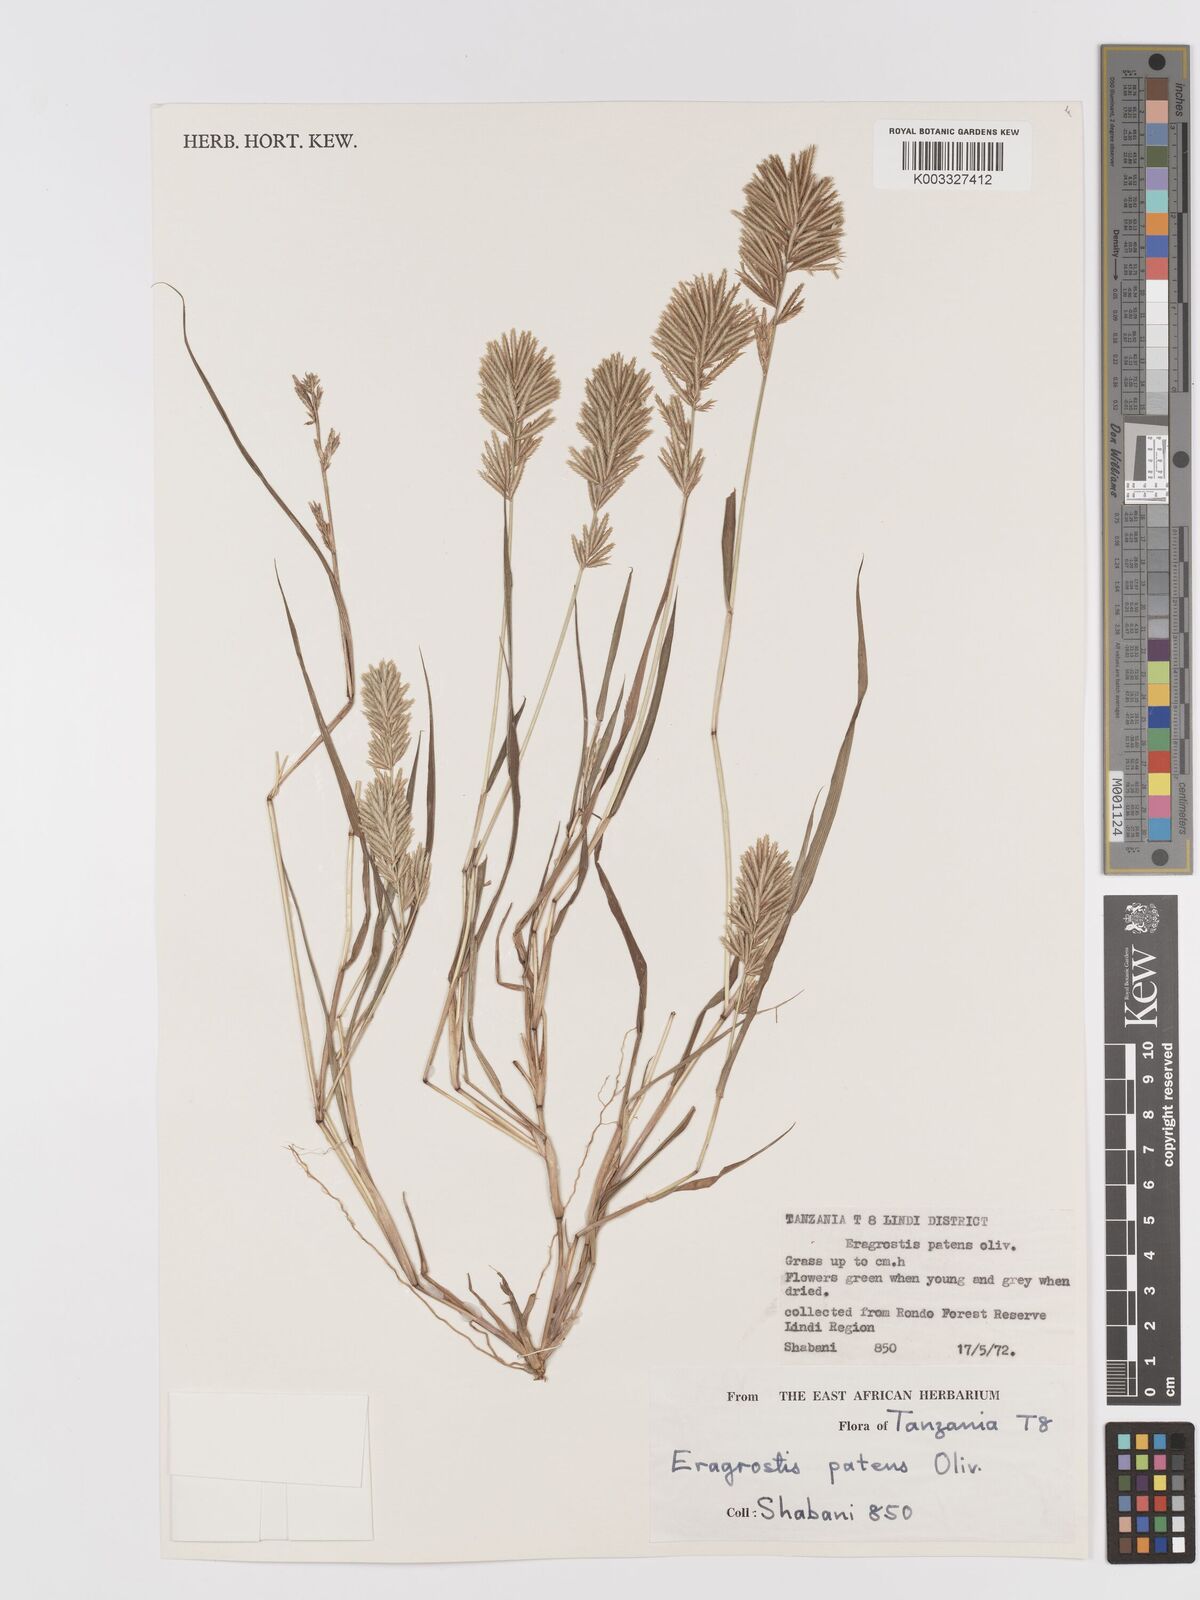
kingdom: Plantae
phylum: Tracheophyta
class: Liliopsida
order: Poales
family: Poaceae
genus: Eragrostis
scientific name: Eragrostis patens
